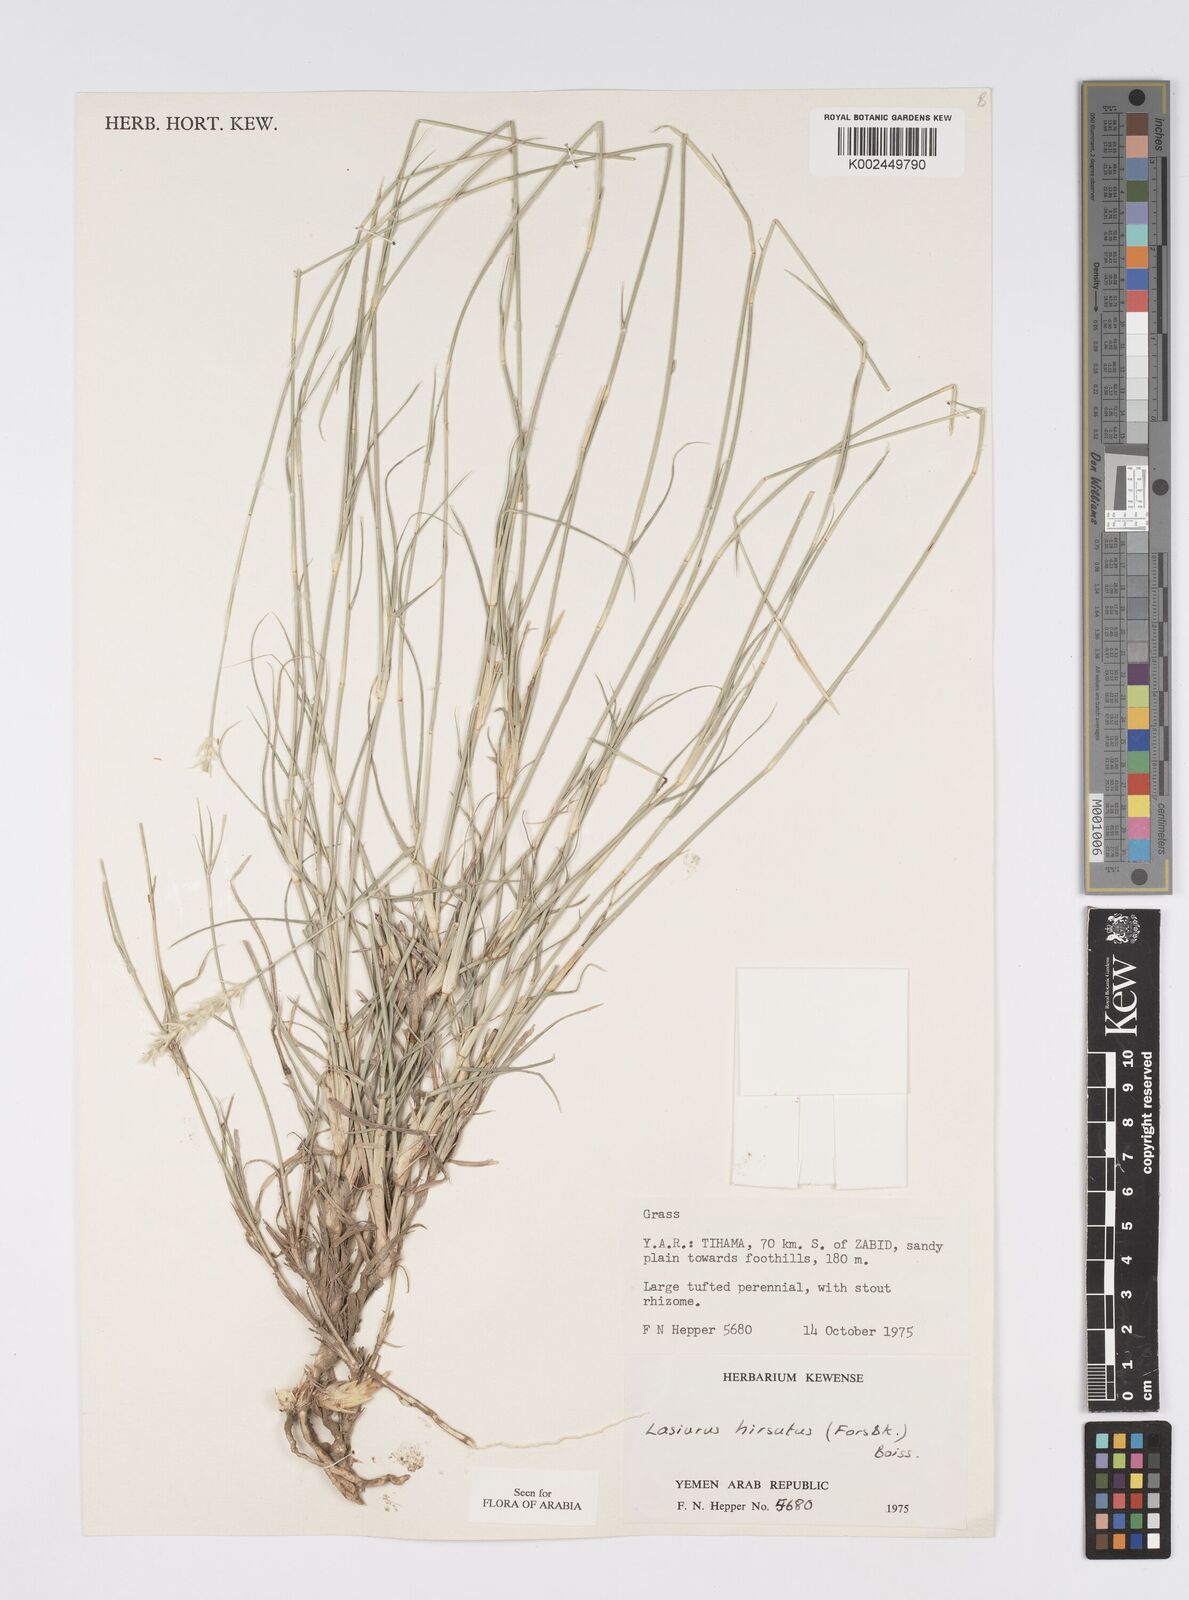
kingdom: Plantae
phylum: Tracheophyta
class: Liliopsida
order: Poales
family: Poaceae
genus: Lasiurus
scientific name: Lasiurus scindicus
